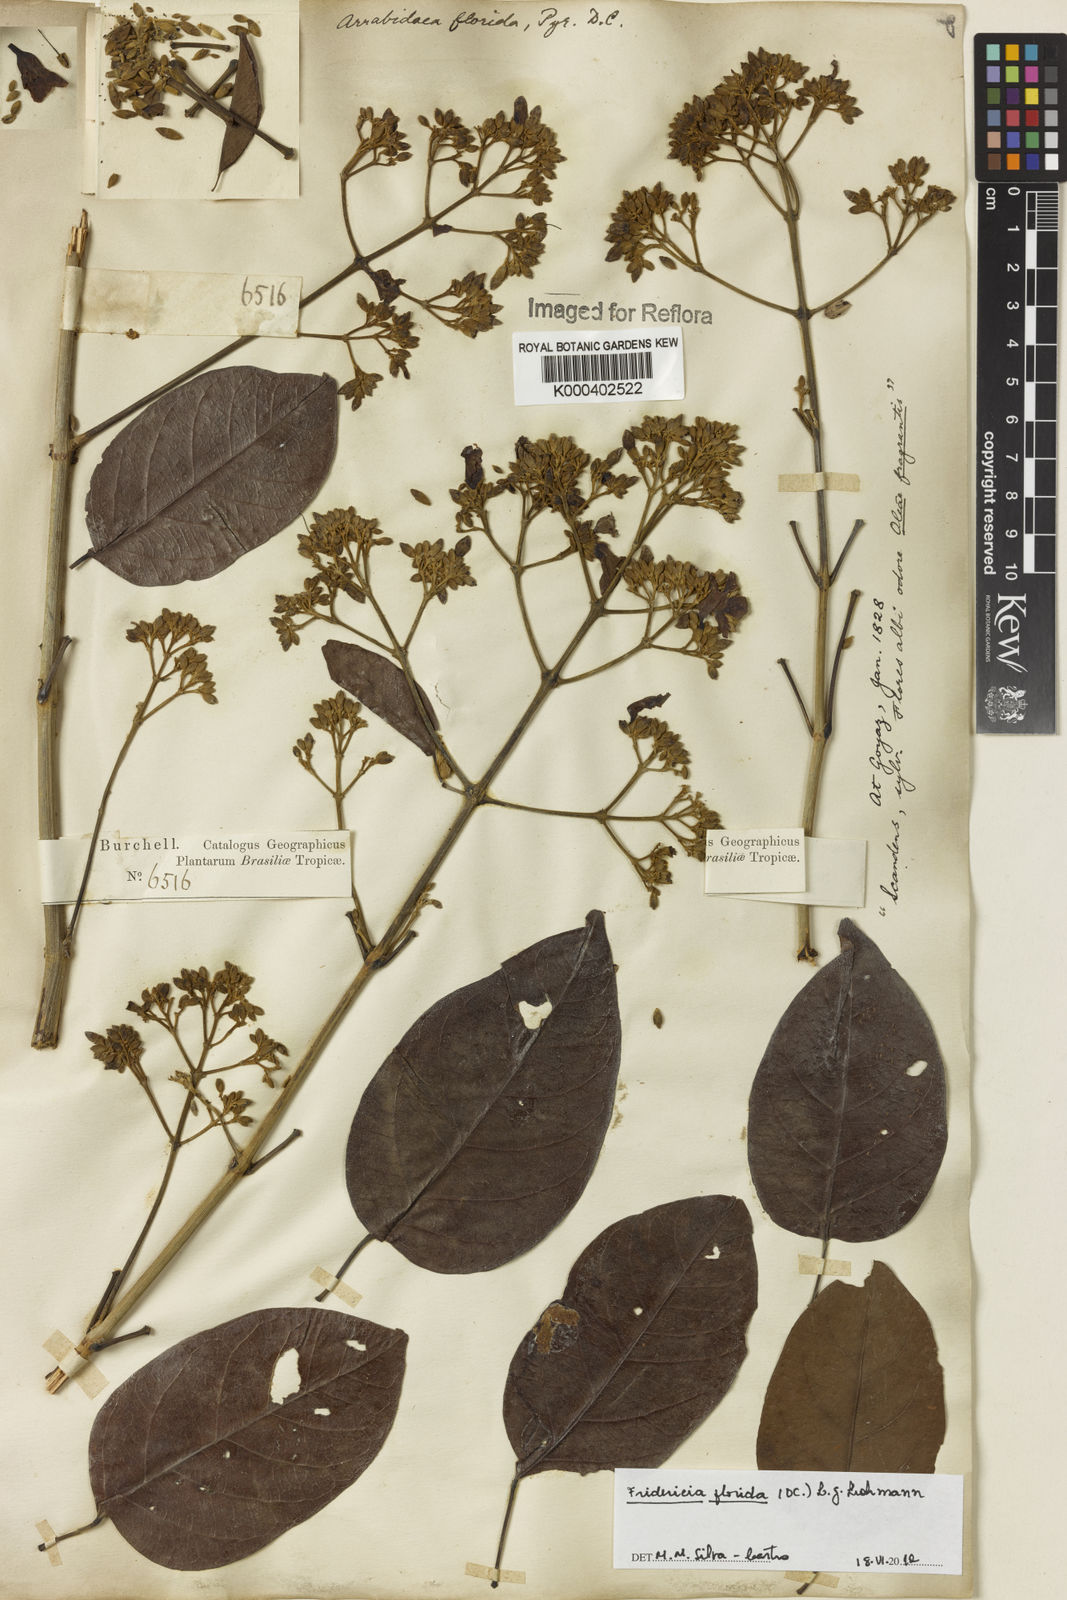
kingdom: Plantae
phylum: Tracheophyta
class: Magnoliopsida
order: Lamiales
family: Bignoniaceae
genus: Fridericia
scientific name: Fridericia florida
